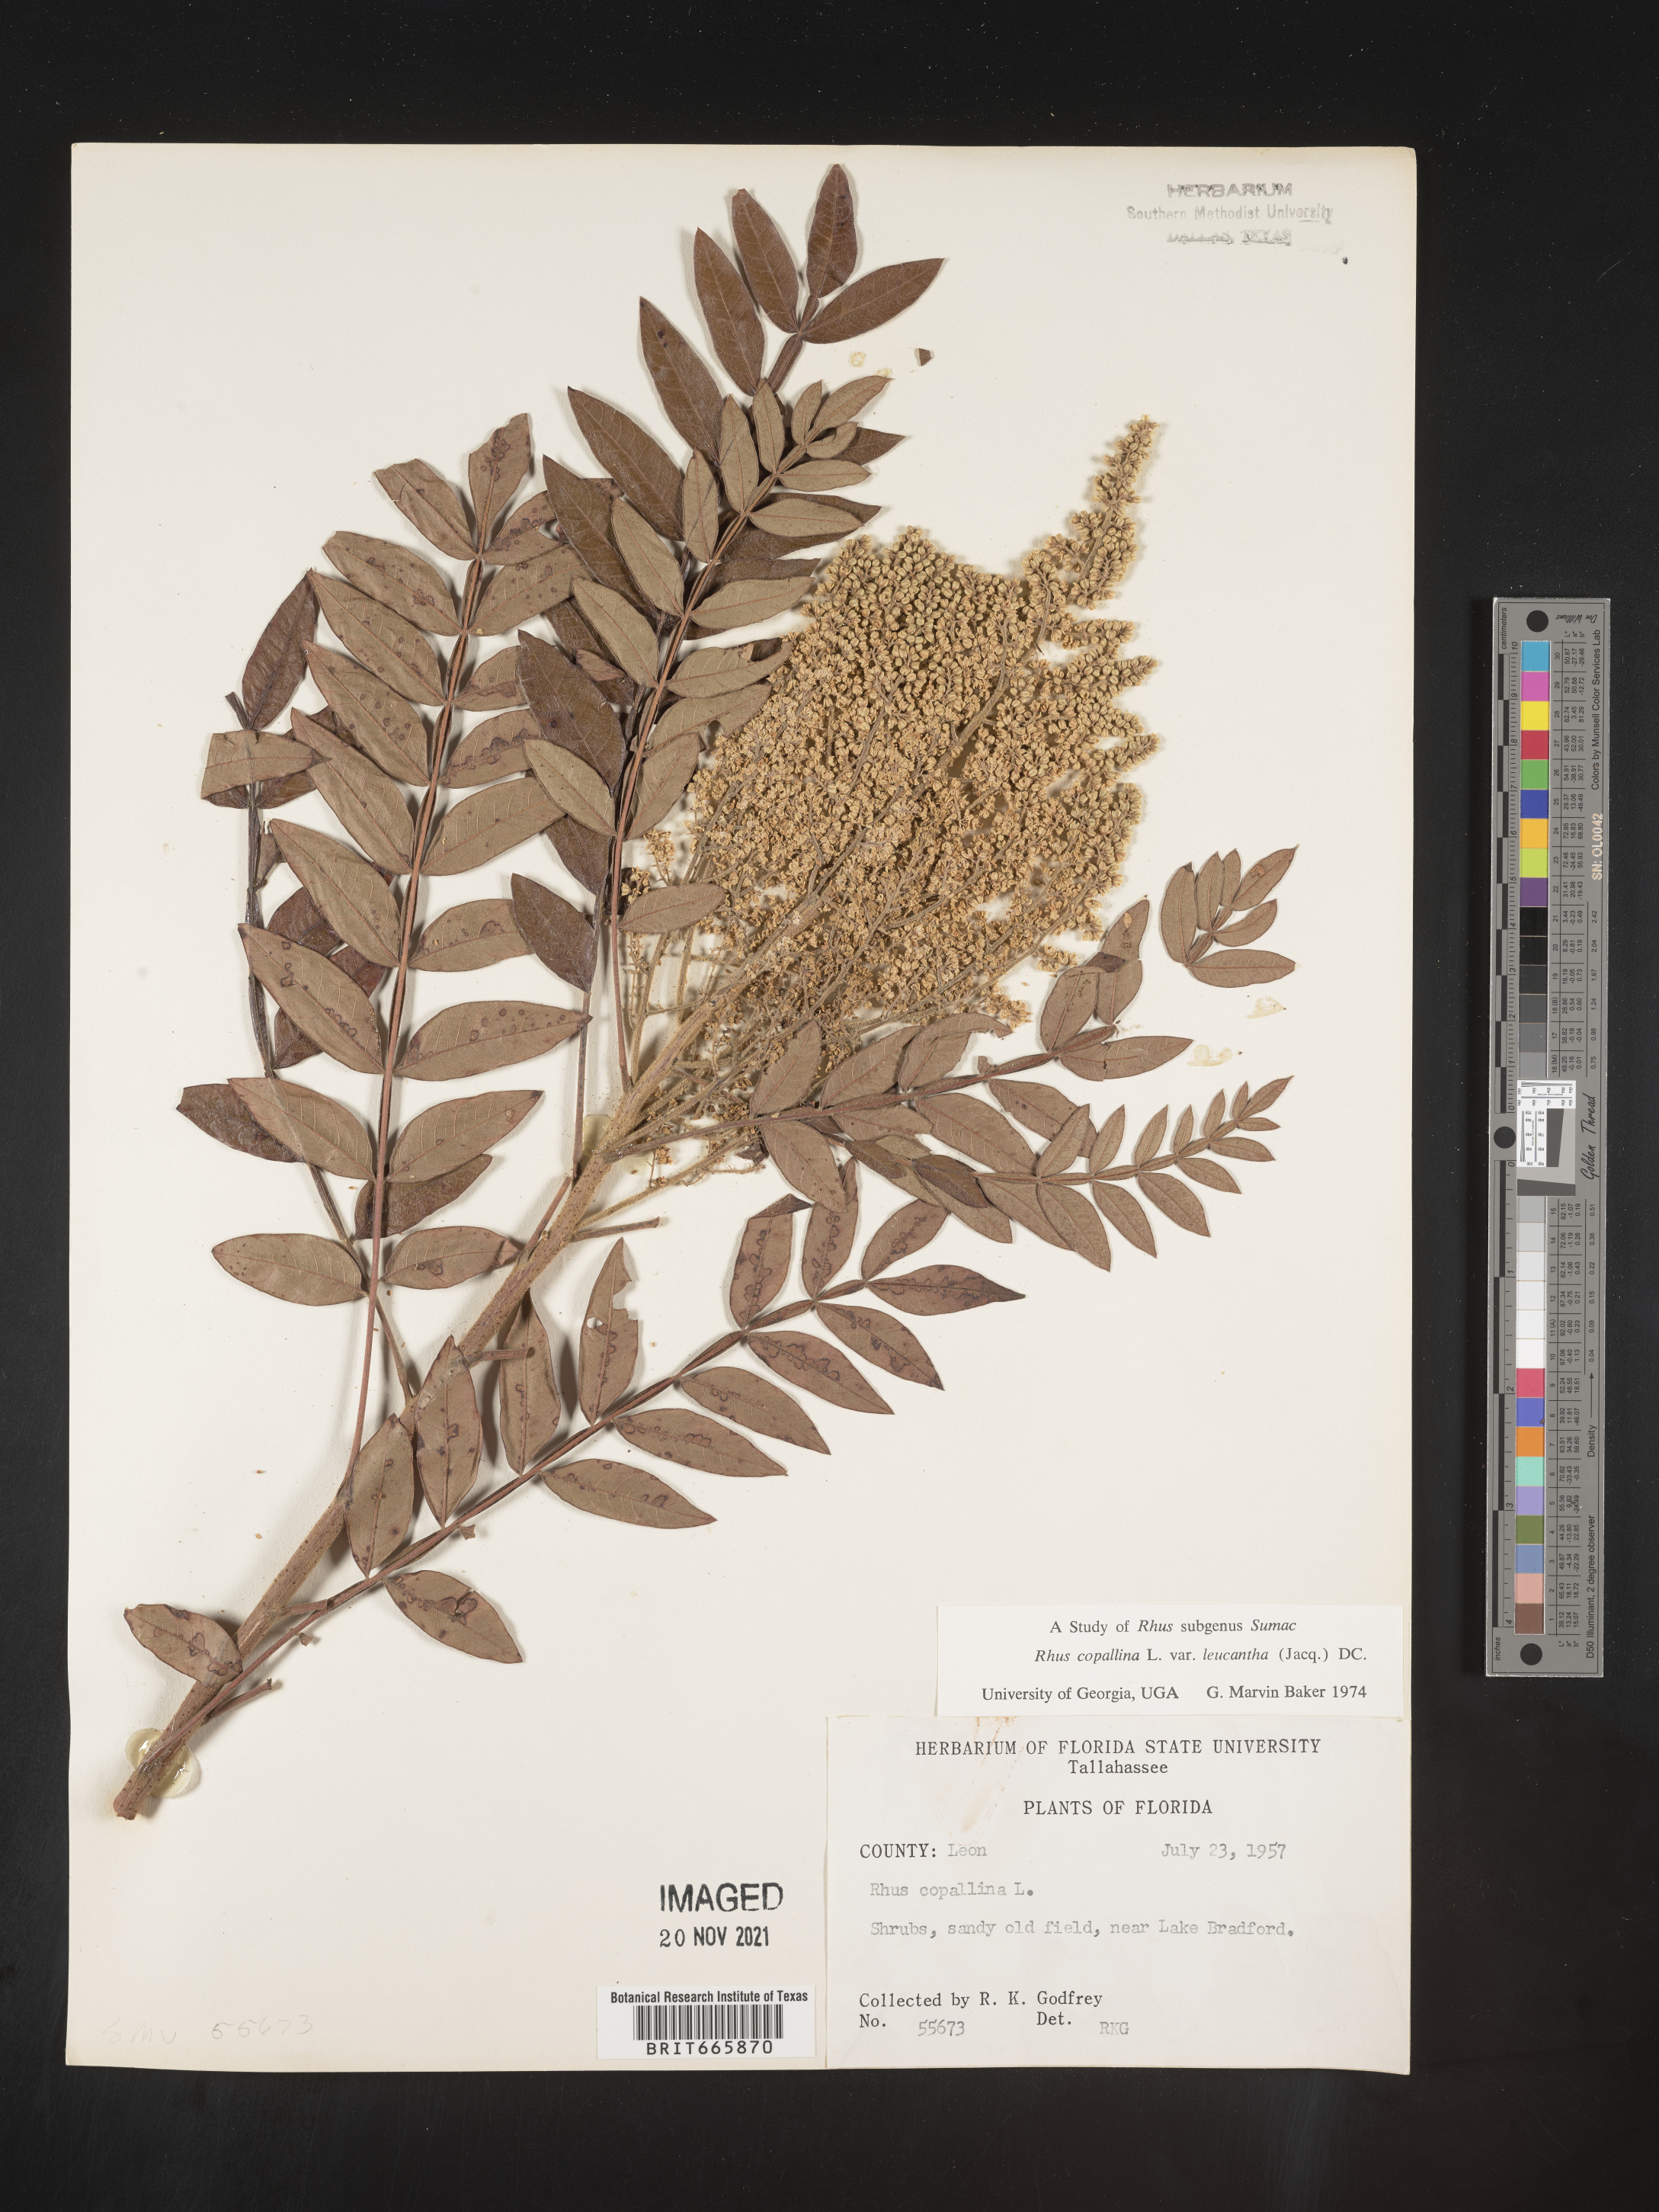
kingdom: Plantae
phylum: Tracheophyta
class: Magnoliopsida
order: Sapindales
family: Anacardiaceae
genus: Rhus
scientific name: Rhus copallina
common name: Shining sumac
